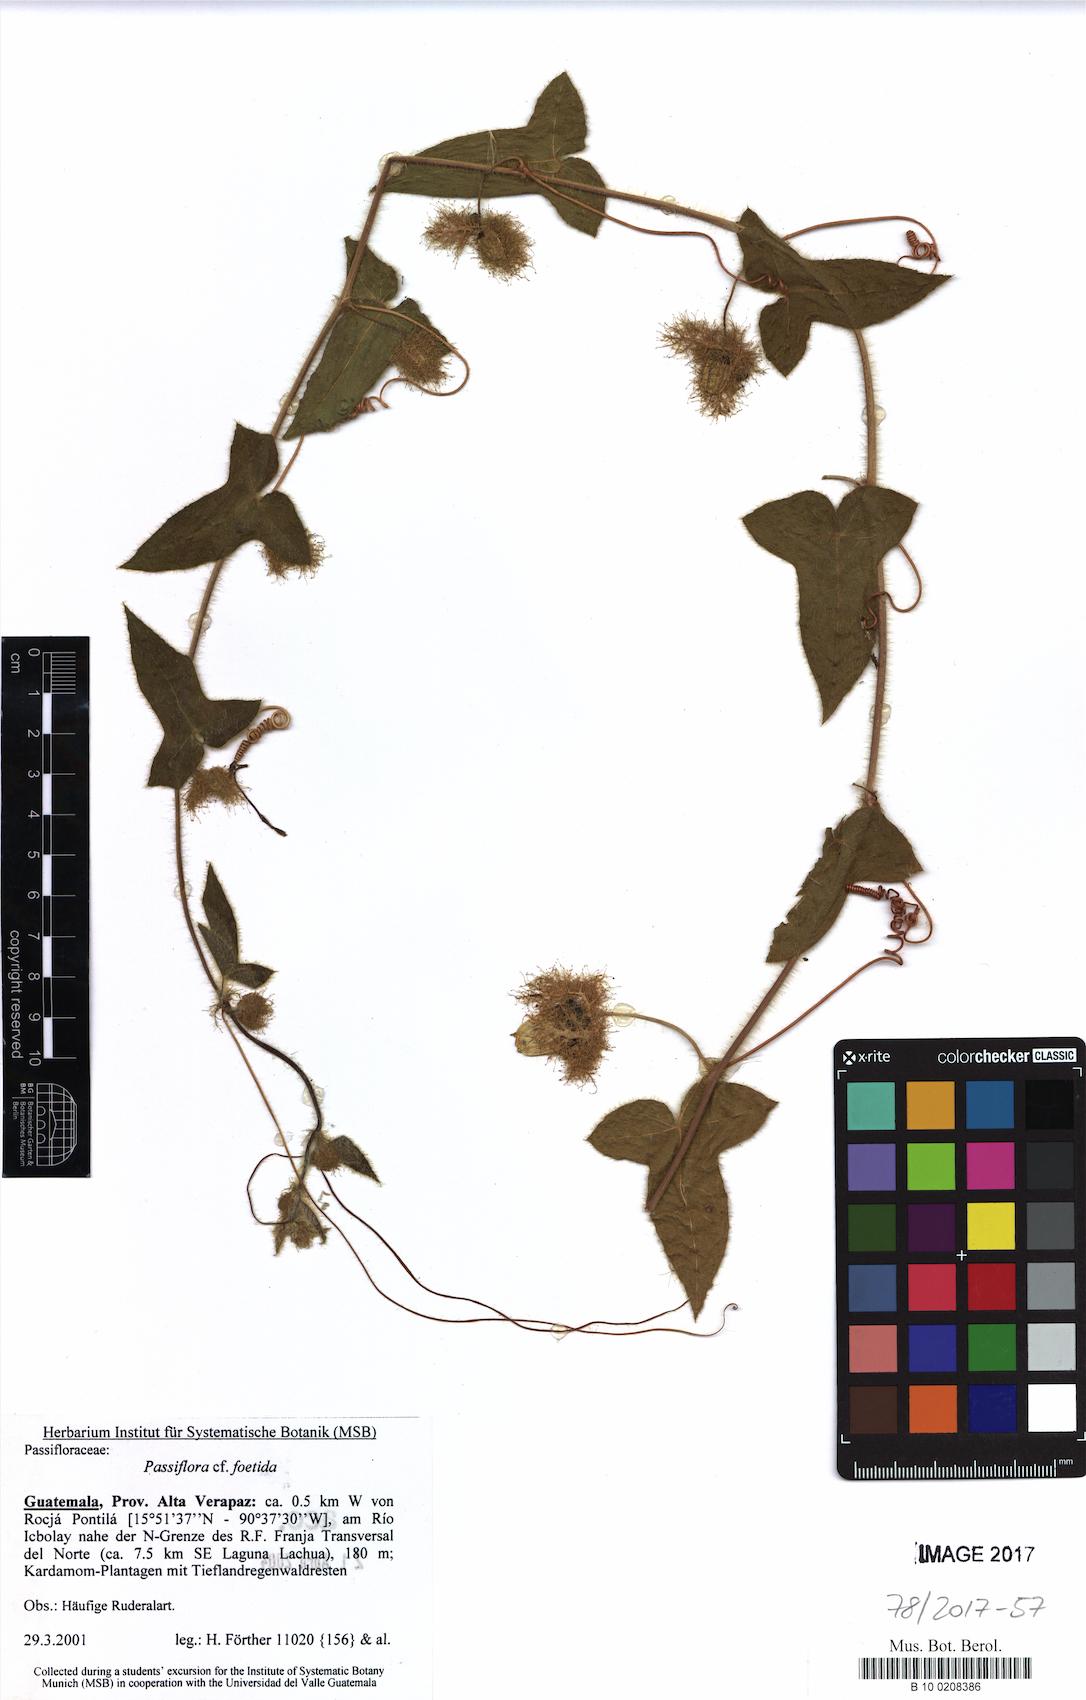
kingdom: Plantae
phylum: Tracheophyta
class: Magnoliopsida
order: Malpighiales
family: Passifloraceae
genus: Passiflora
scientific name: Passiflora foetida
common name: Fetid passionflower
